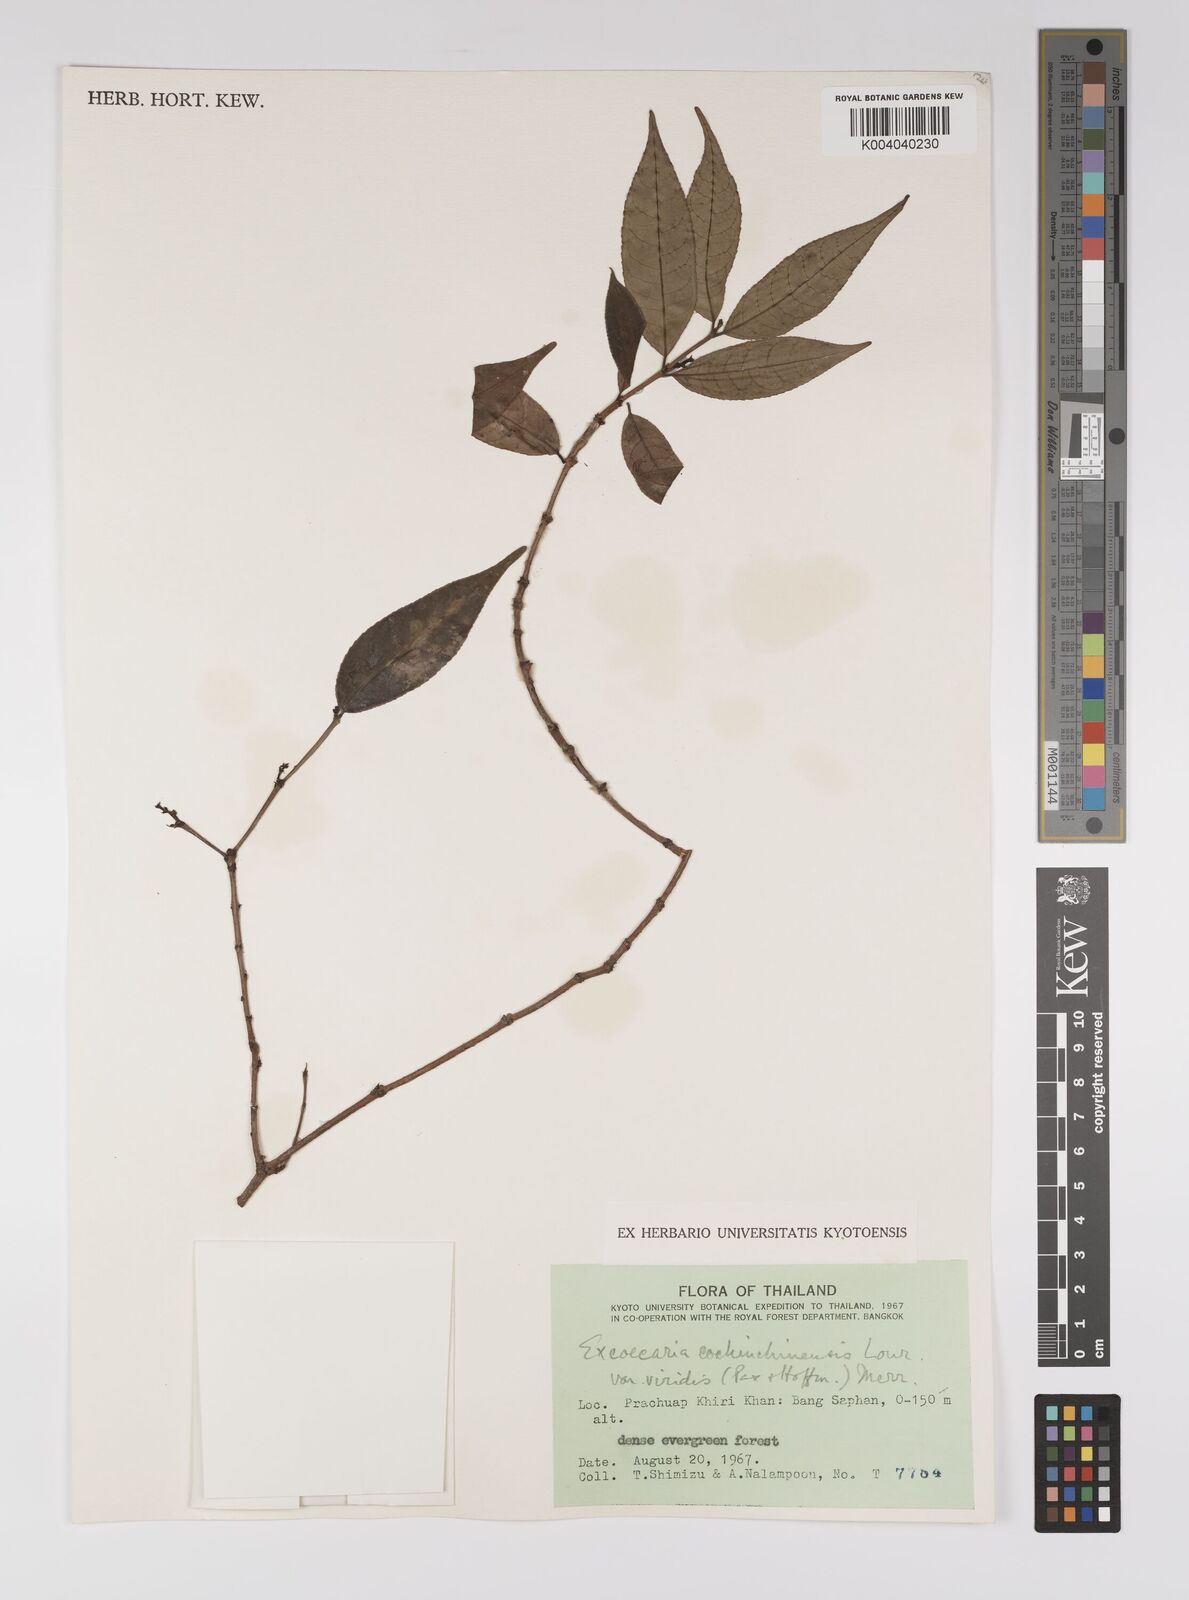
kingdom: Plantae
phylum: Tracheophyta
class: Magnoliopsida
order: Malpighiales
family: Euphorbiaceae
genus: Excoecaria
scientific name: Excoecaria cochinchinensis
